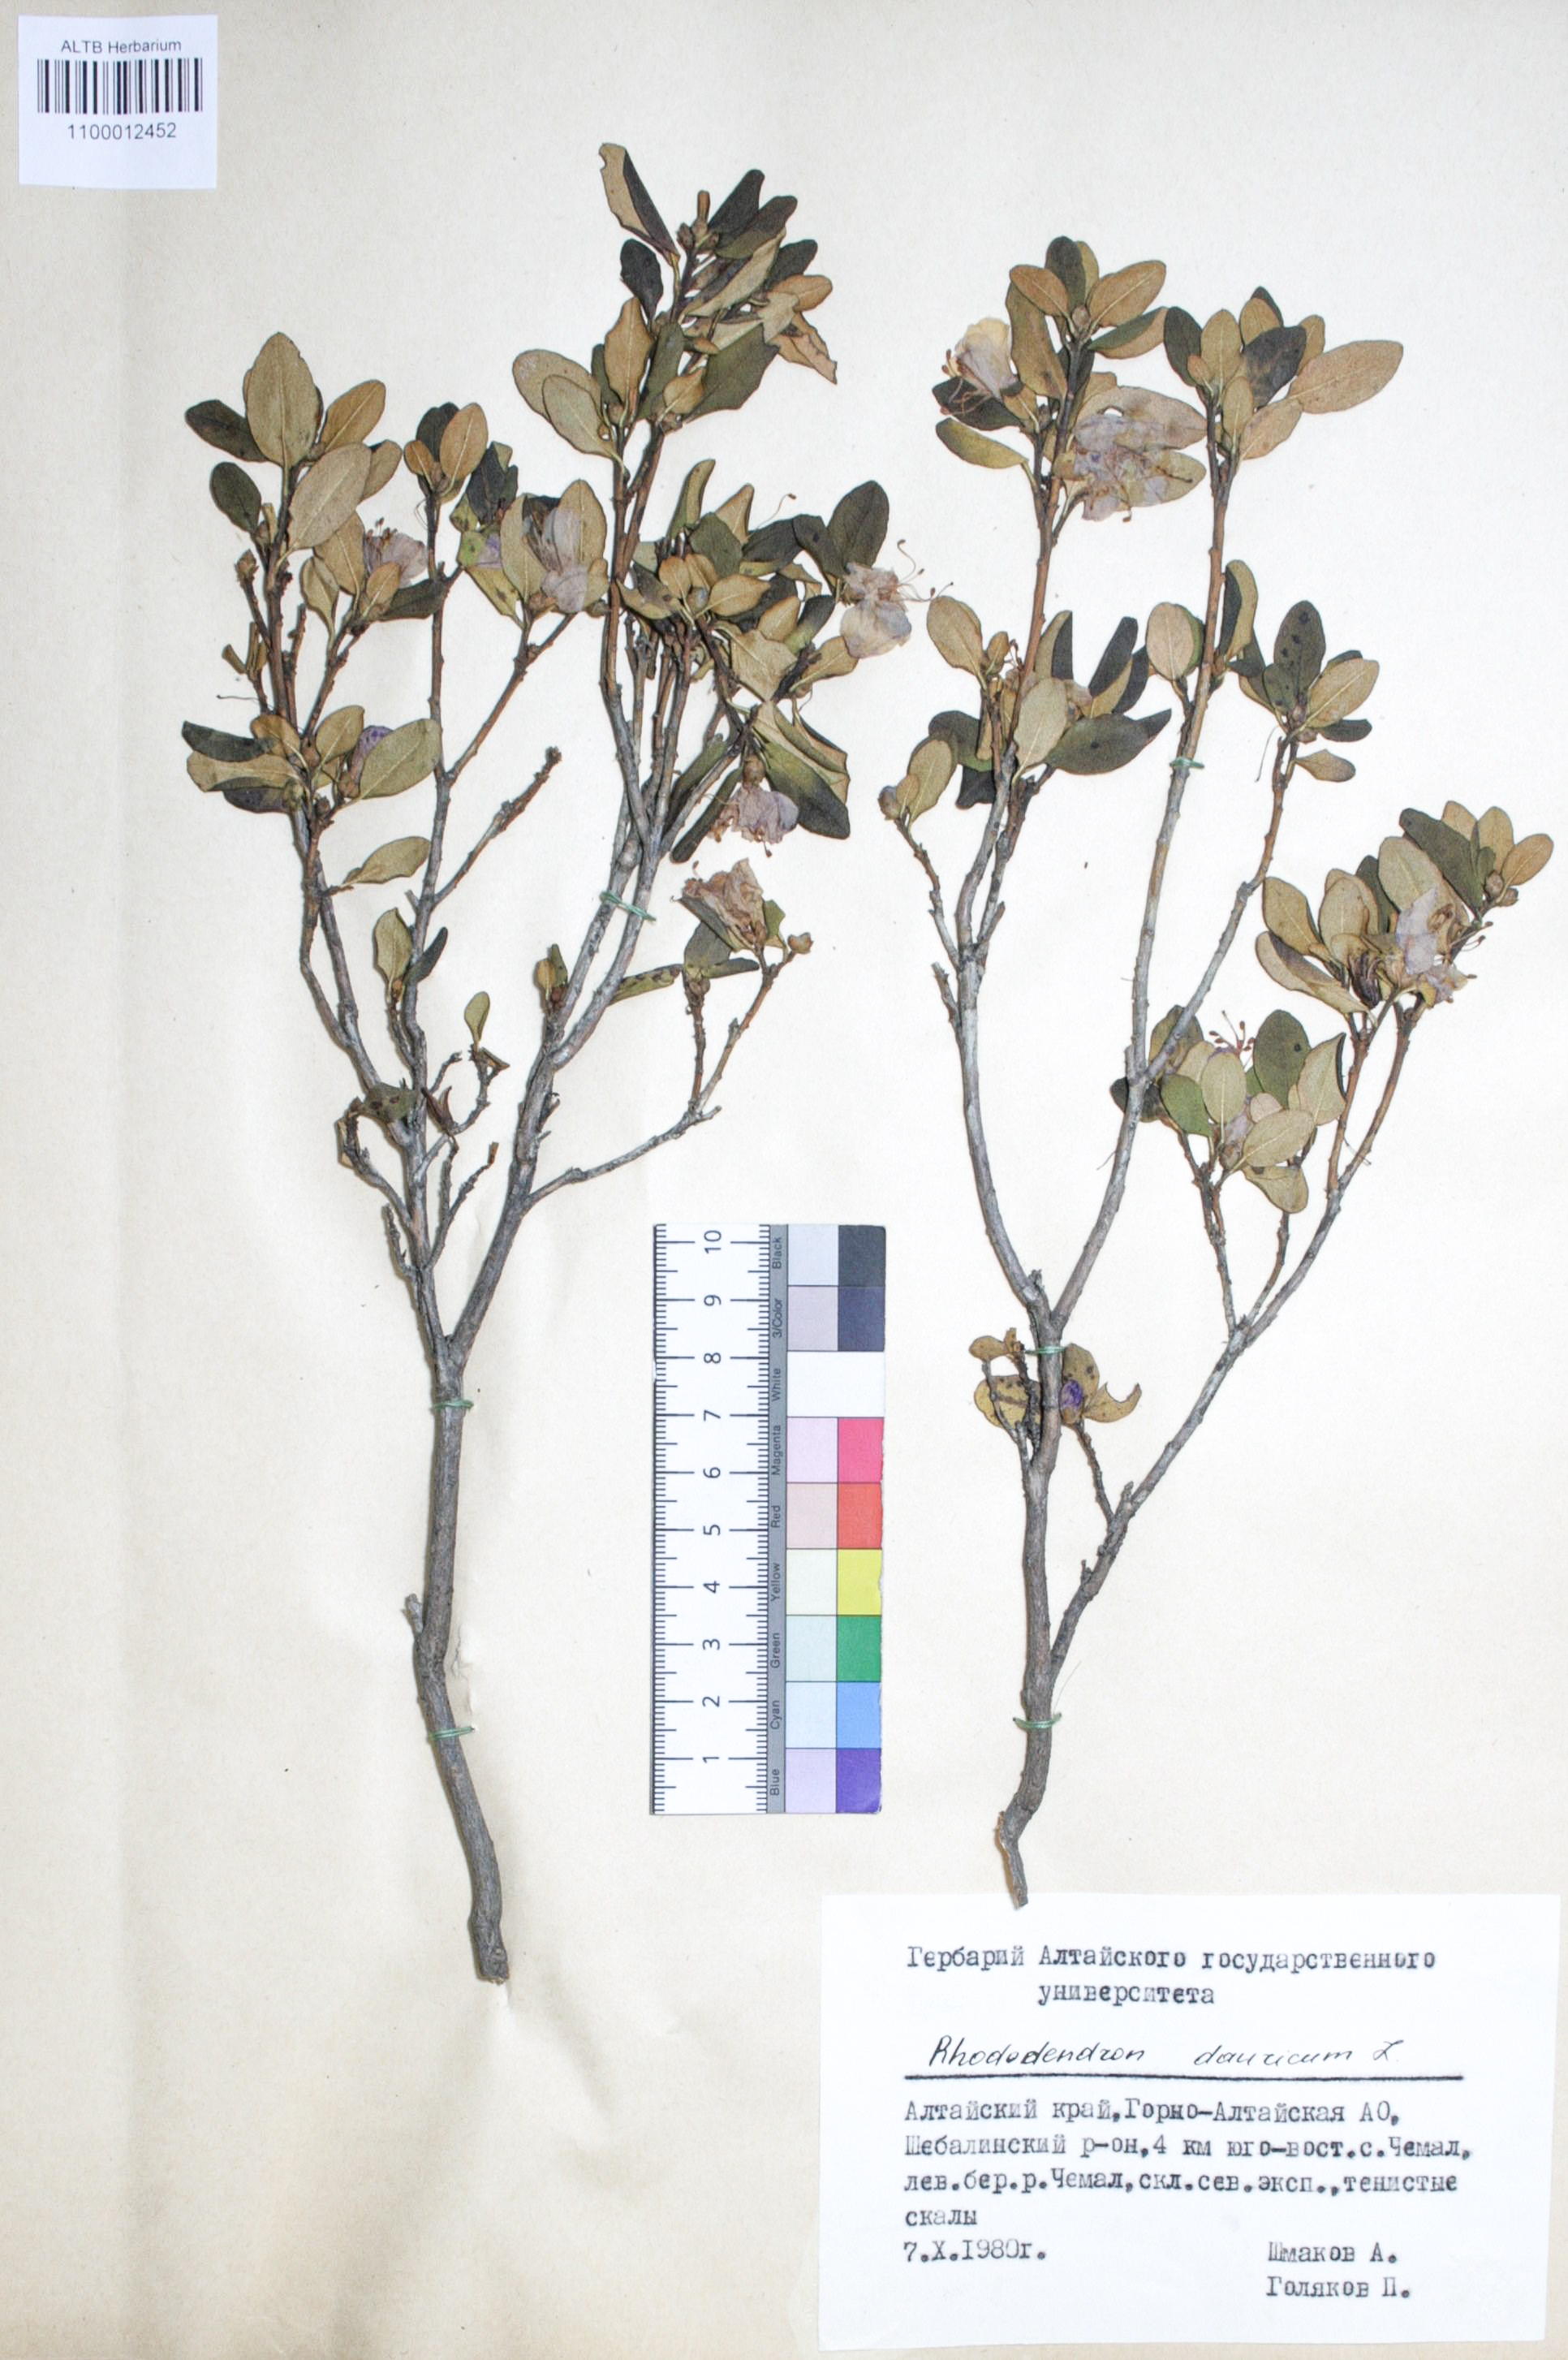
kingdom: Plantae
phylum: Tracheophyta
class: Magnoliopsida
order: Ericales
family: Ericaceae
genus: Rhododendron
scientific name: Rhododendron dahuricum
